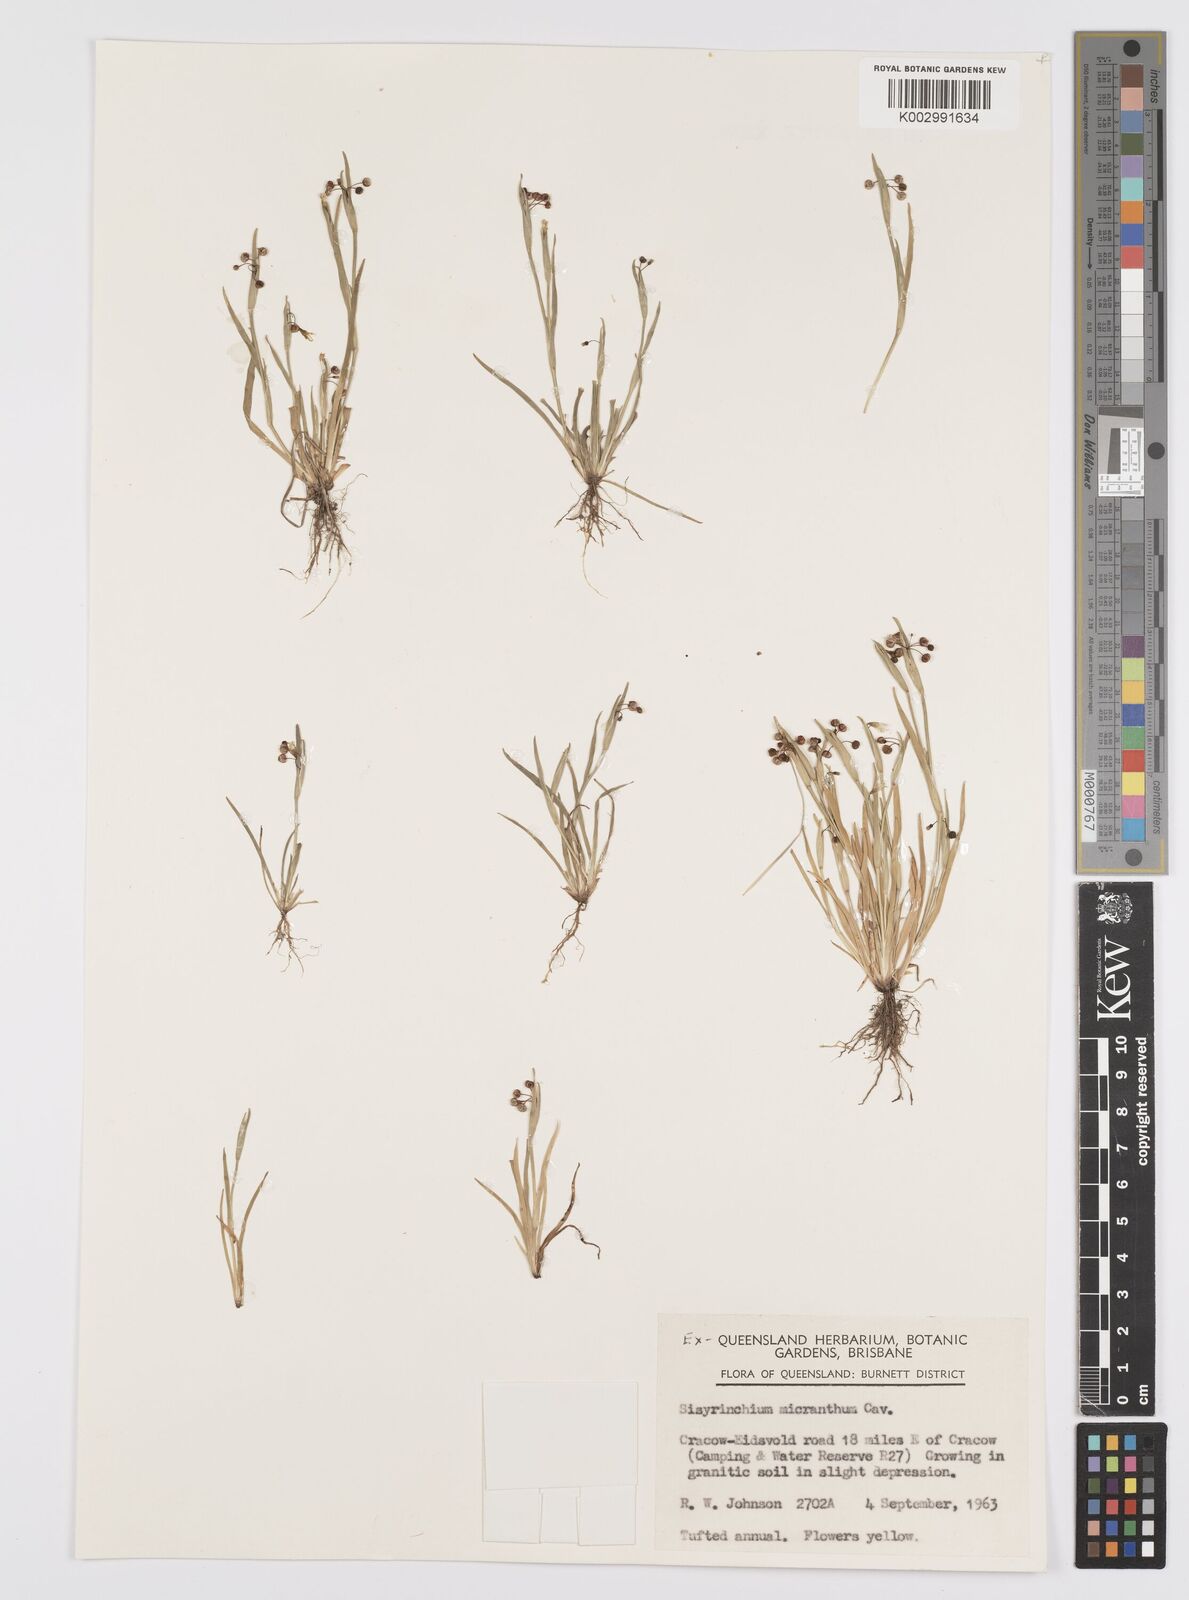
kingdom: Plantae
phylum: Tracheophyta
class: Liliopsida
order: Asparagales
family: Iridaceae
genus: Sisyrinchium
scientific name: Sisyrinchium micranthum
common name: Bermuda pigroot
